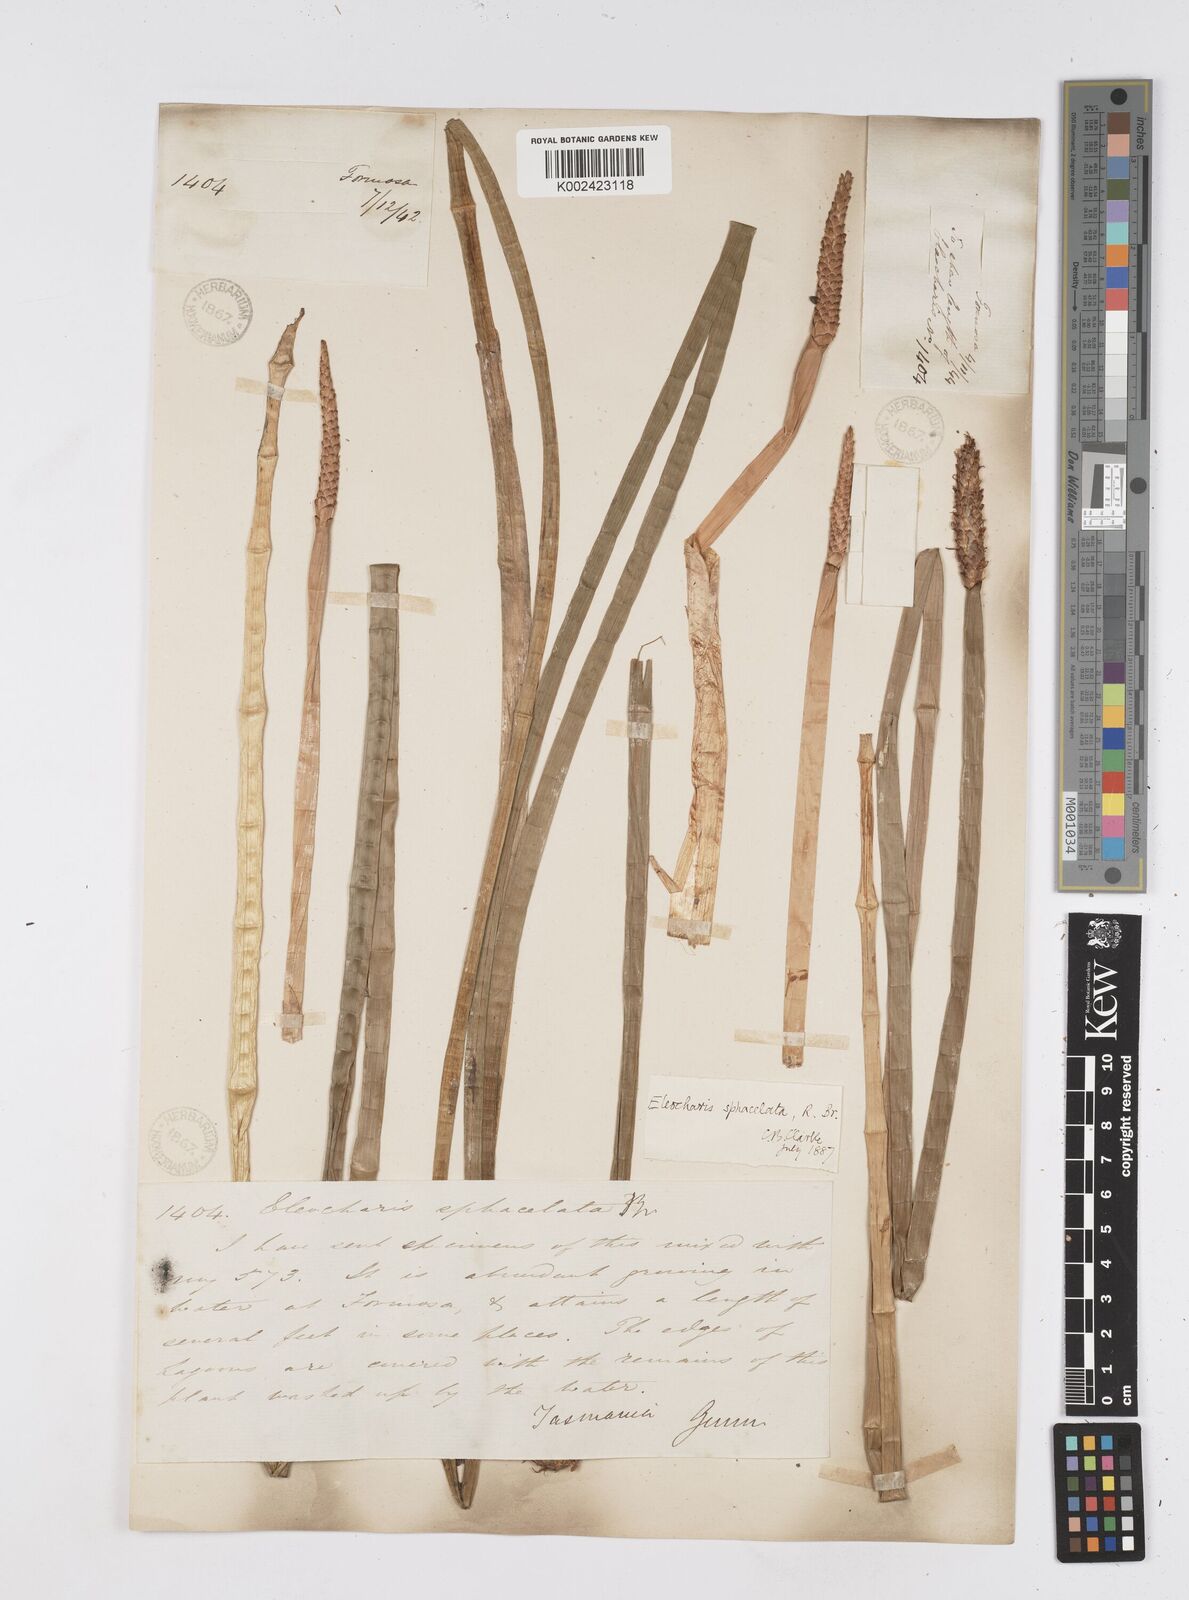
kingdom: Plantae
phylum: Tracheophyta
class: Liliopsida
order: Poales
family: Cyperaceae
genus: Eleocharis
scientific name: Eleocharis sphacelata
